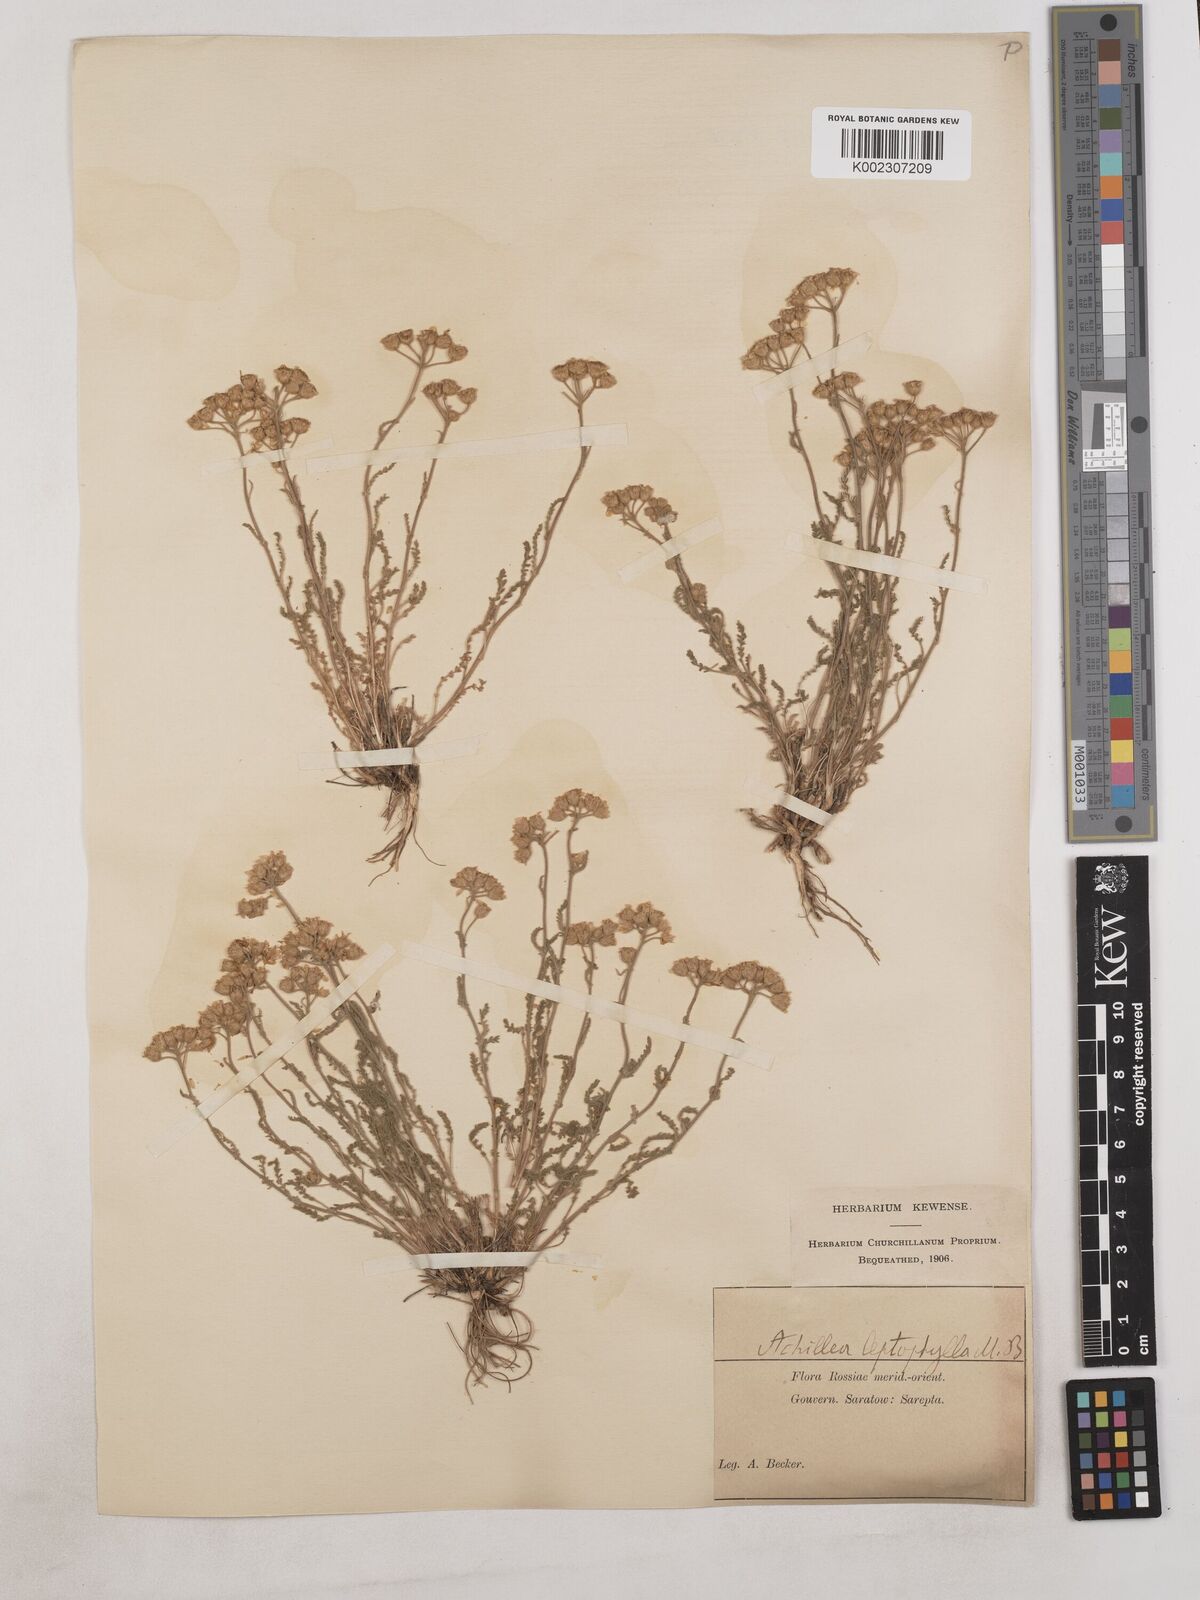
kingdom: Plantae
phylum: Tracheophyta
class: Magnoliopsida
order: Asterales
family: Asteraceae
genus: Achillea
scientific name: Achillea leptophylla
